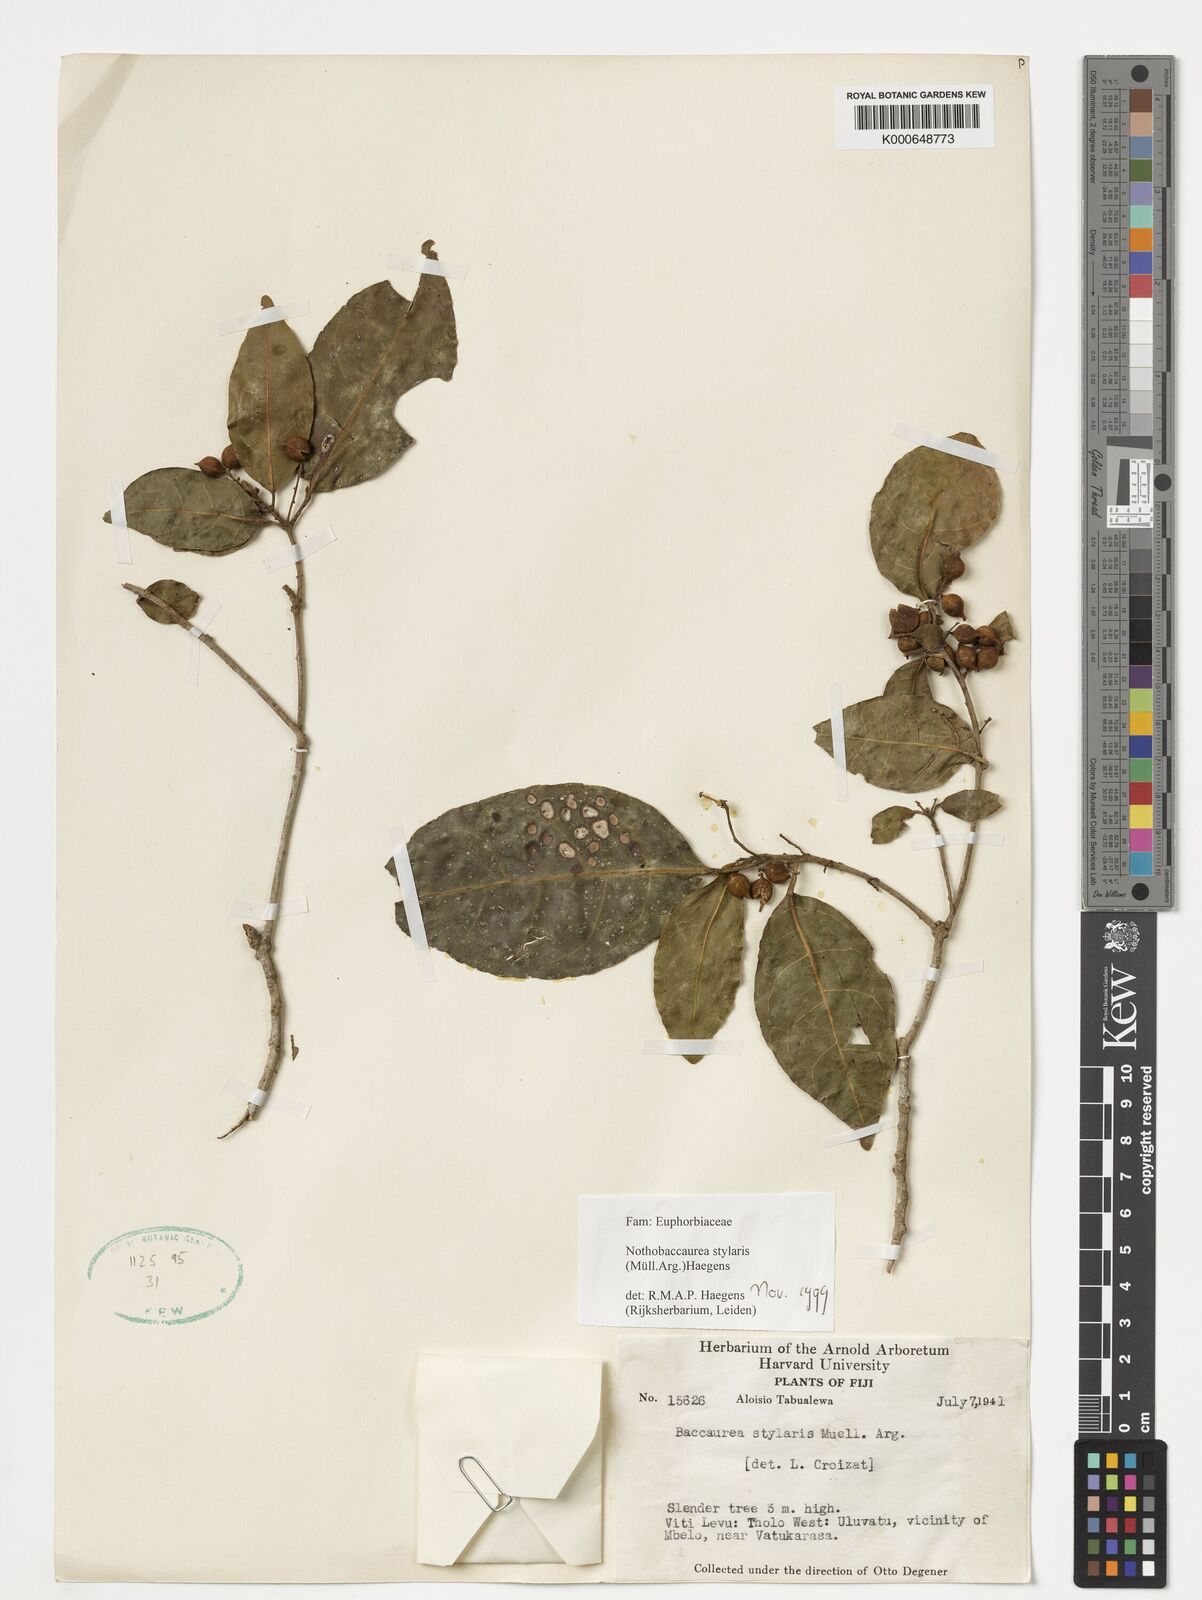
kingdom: Plantae
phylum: Tracheophyta
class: Magnoliopsida
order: Malpighiales
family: Phyllanthaceae
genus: Nothobaccaurea
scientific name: Nothobaccaurea stylaris
